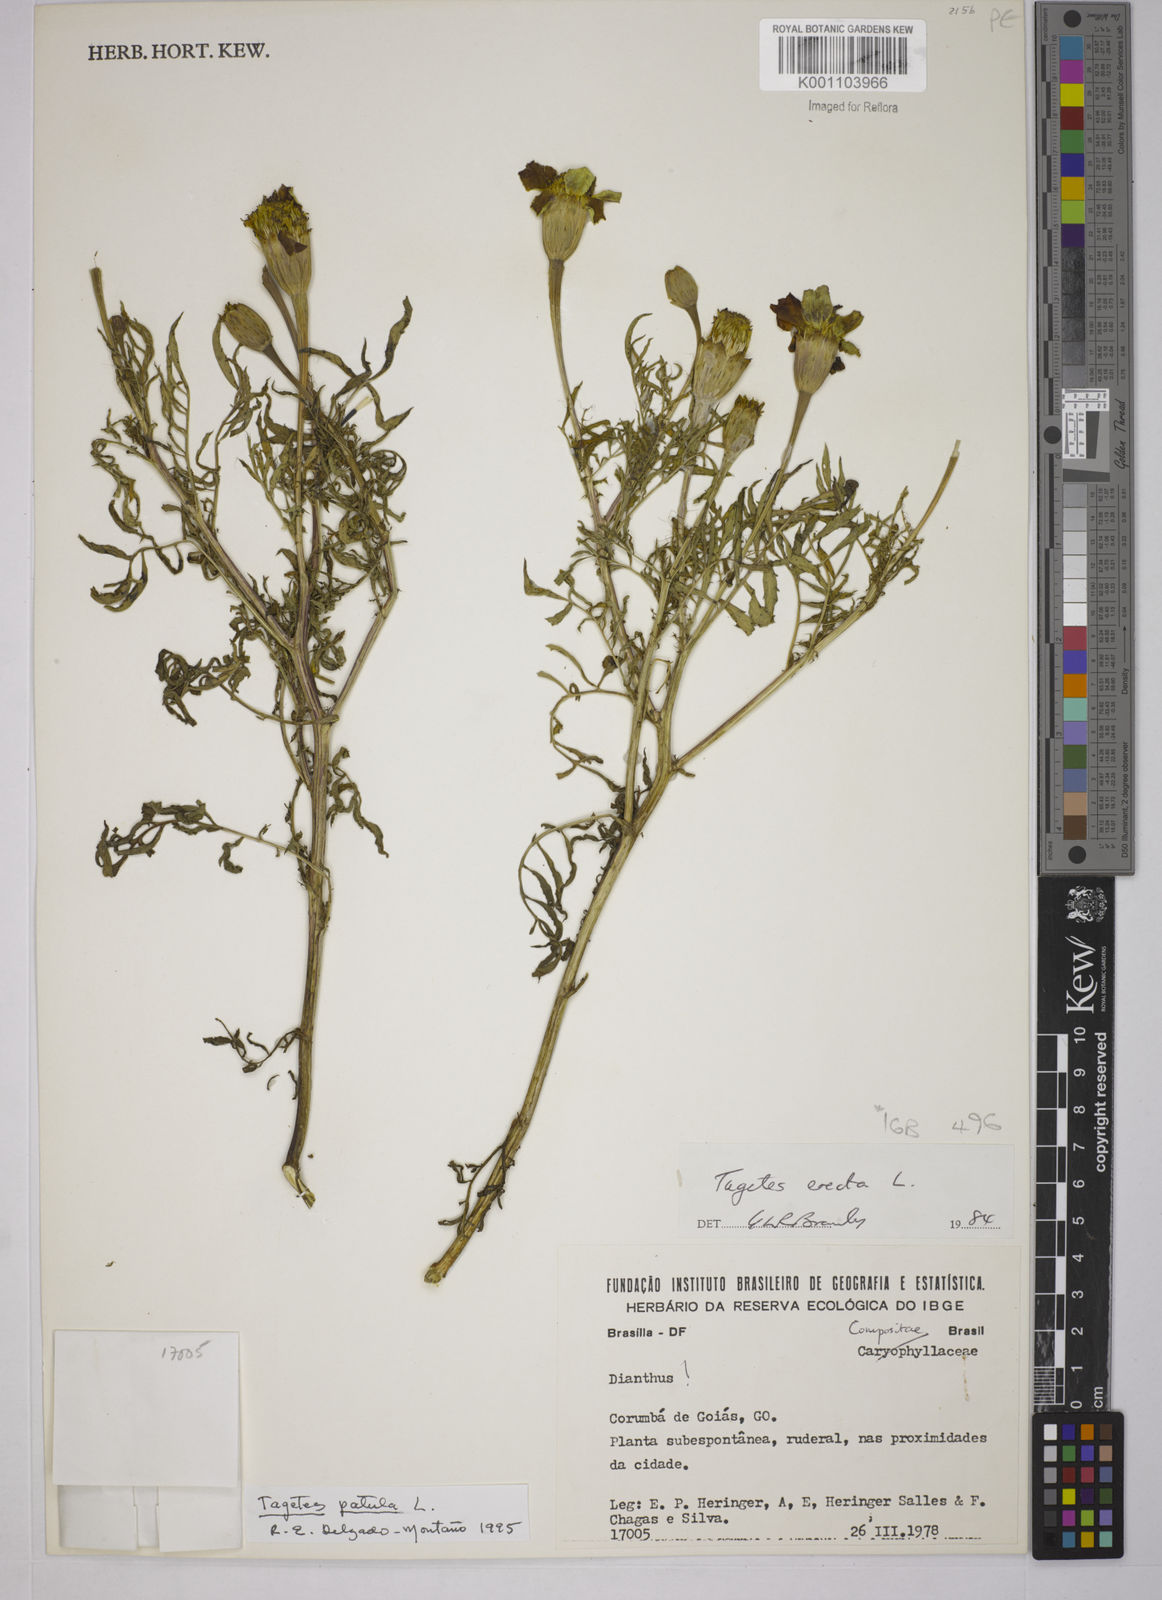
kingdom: Plantae
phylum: Tracheophyta
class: Magnoliopsida
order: Asterales
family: Asteraceae
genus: Tagetes
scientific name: Tagetes erecta
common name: African marigold
